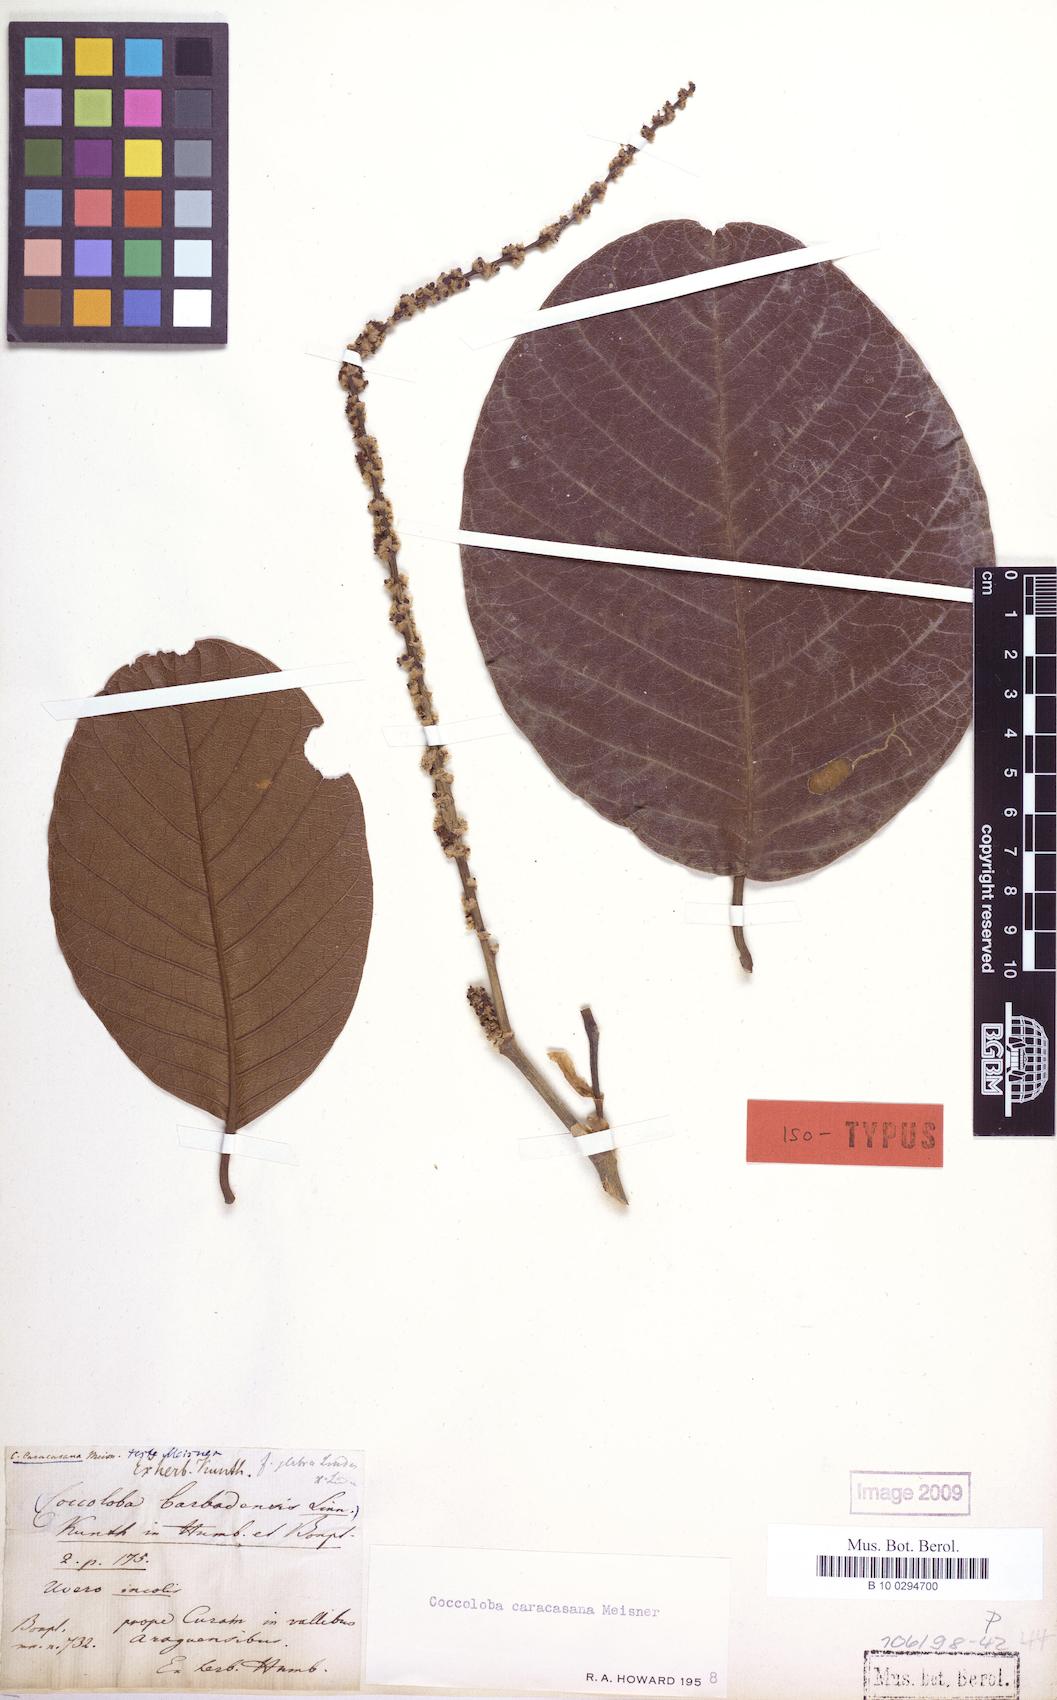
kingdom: Plantae
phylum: Tracheophyta
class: Magnoliopsida
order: Caryophyllales
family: Polygonaceae
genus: Coccoloba
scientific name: Coccoloba caracasana
